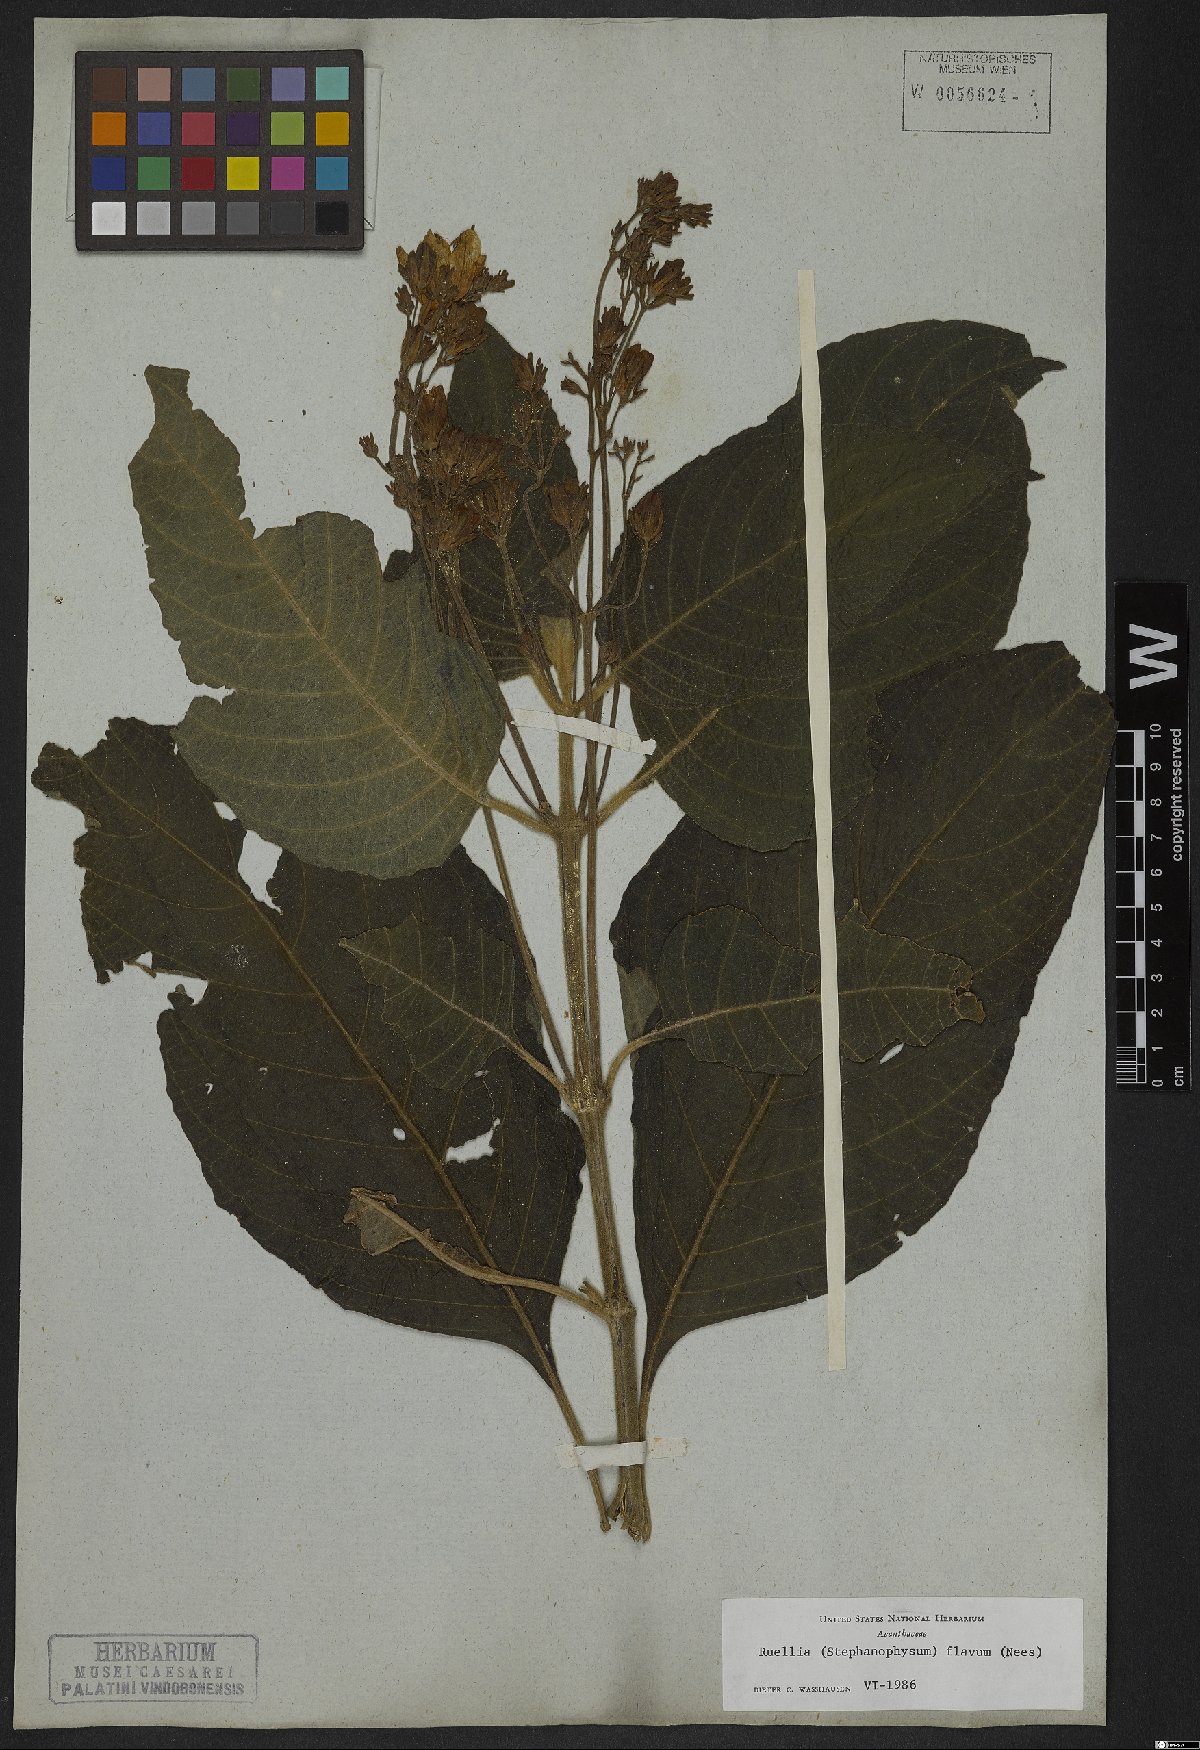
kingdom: Plantae
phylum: Tracheophyta
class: Magnoliopsida
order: Lamiales
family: Acanthaceae
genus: Ruellia
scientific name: Ruellia ochroleuca
